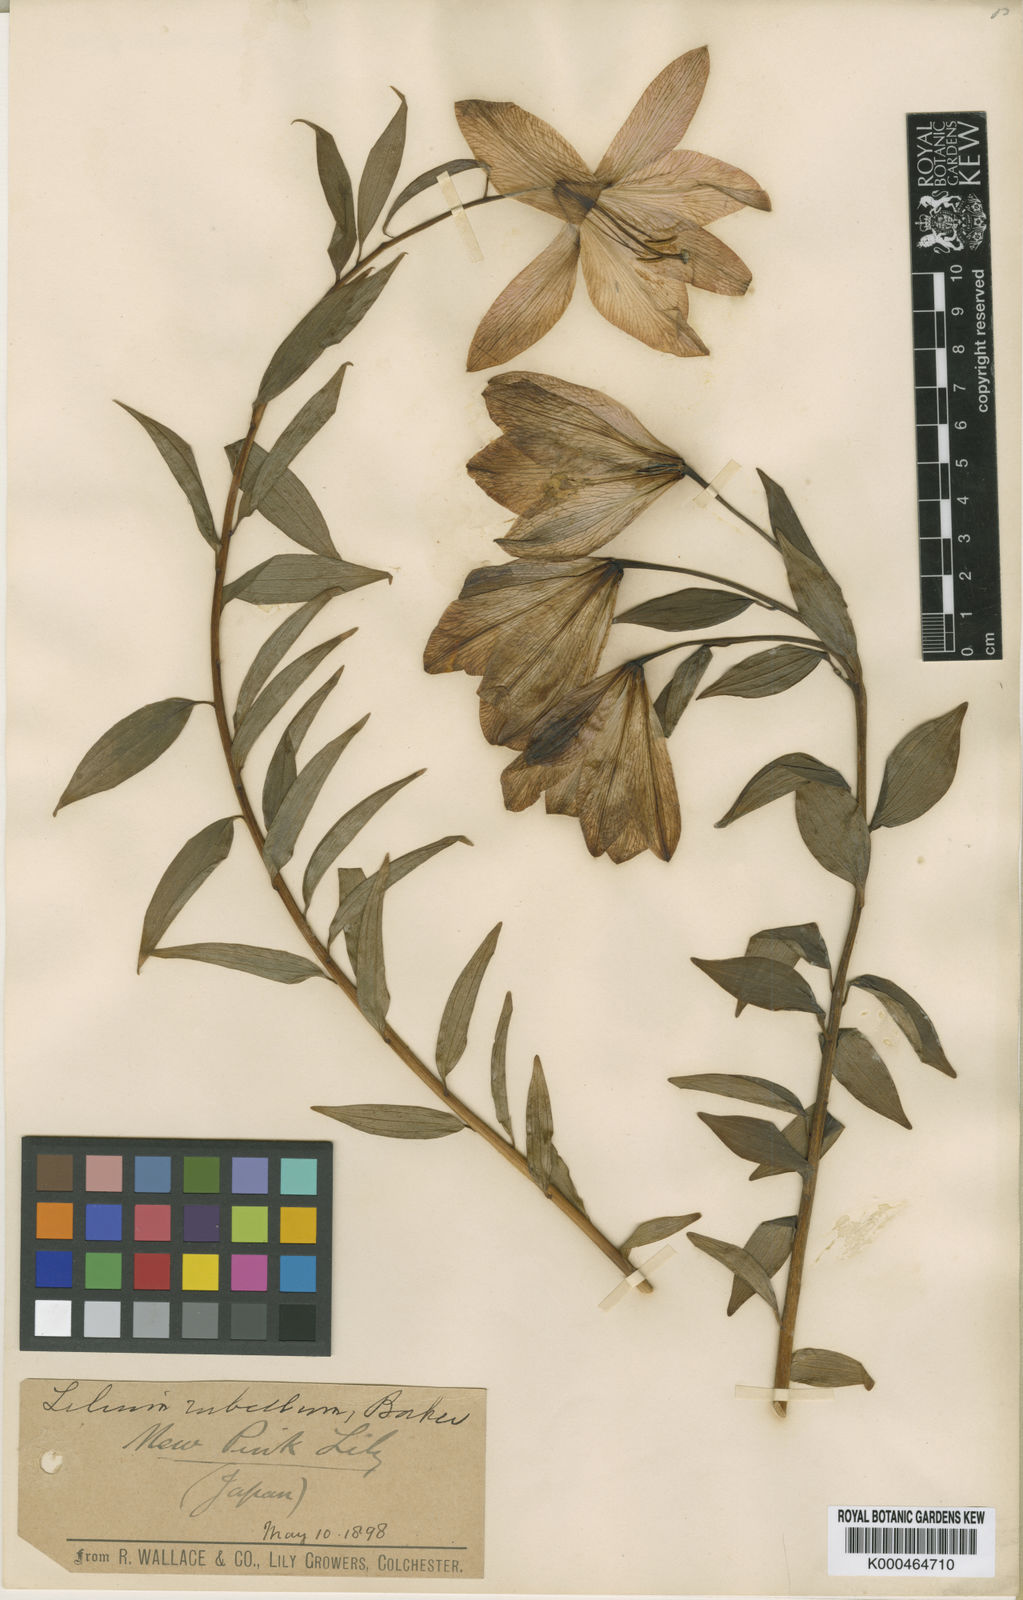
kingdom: Plantae
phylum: Tracheophyta
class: Liliopsida
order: Liliales
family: Liliaceae
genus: Lilium
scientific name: Lilium rubellum
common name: Rubellum lily
